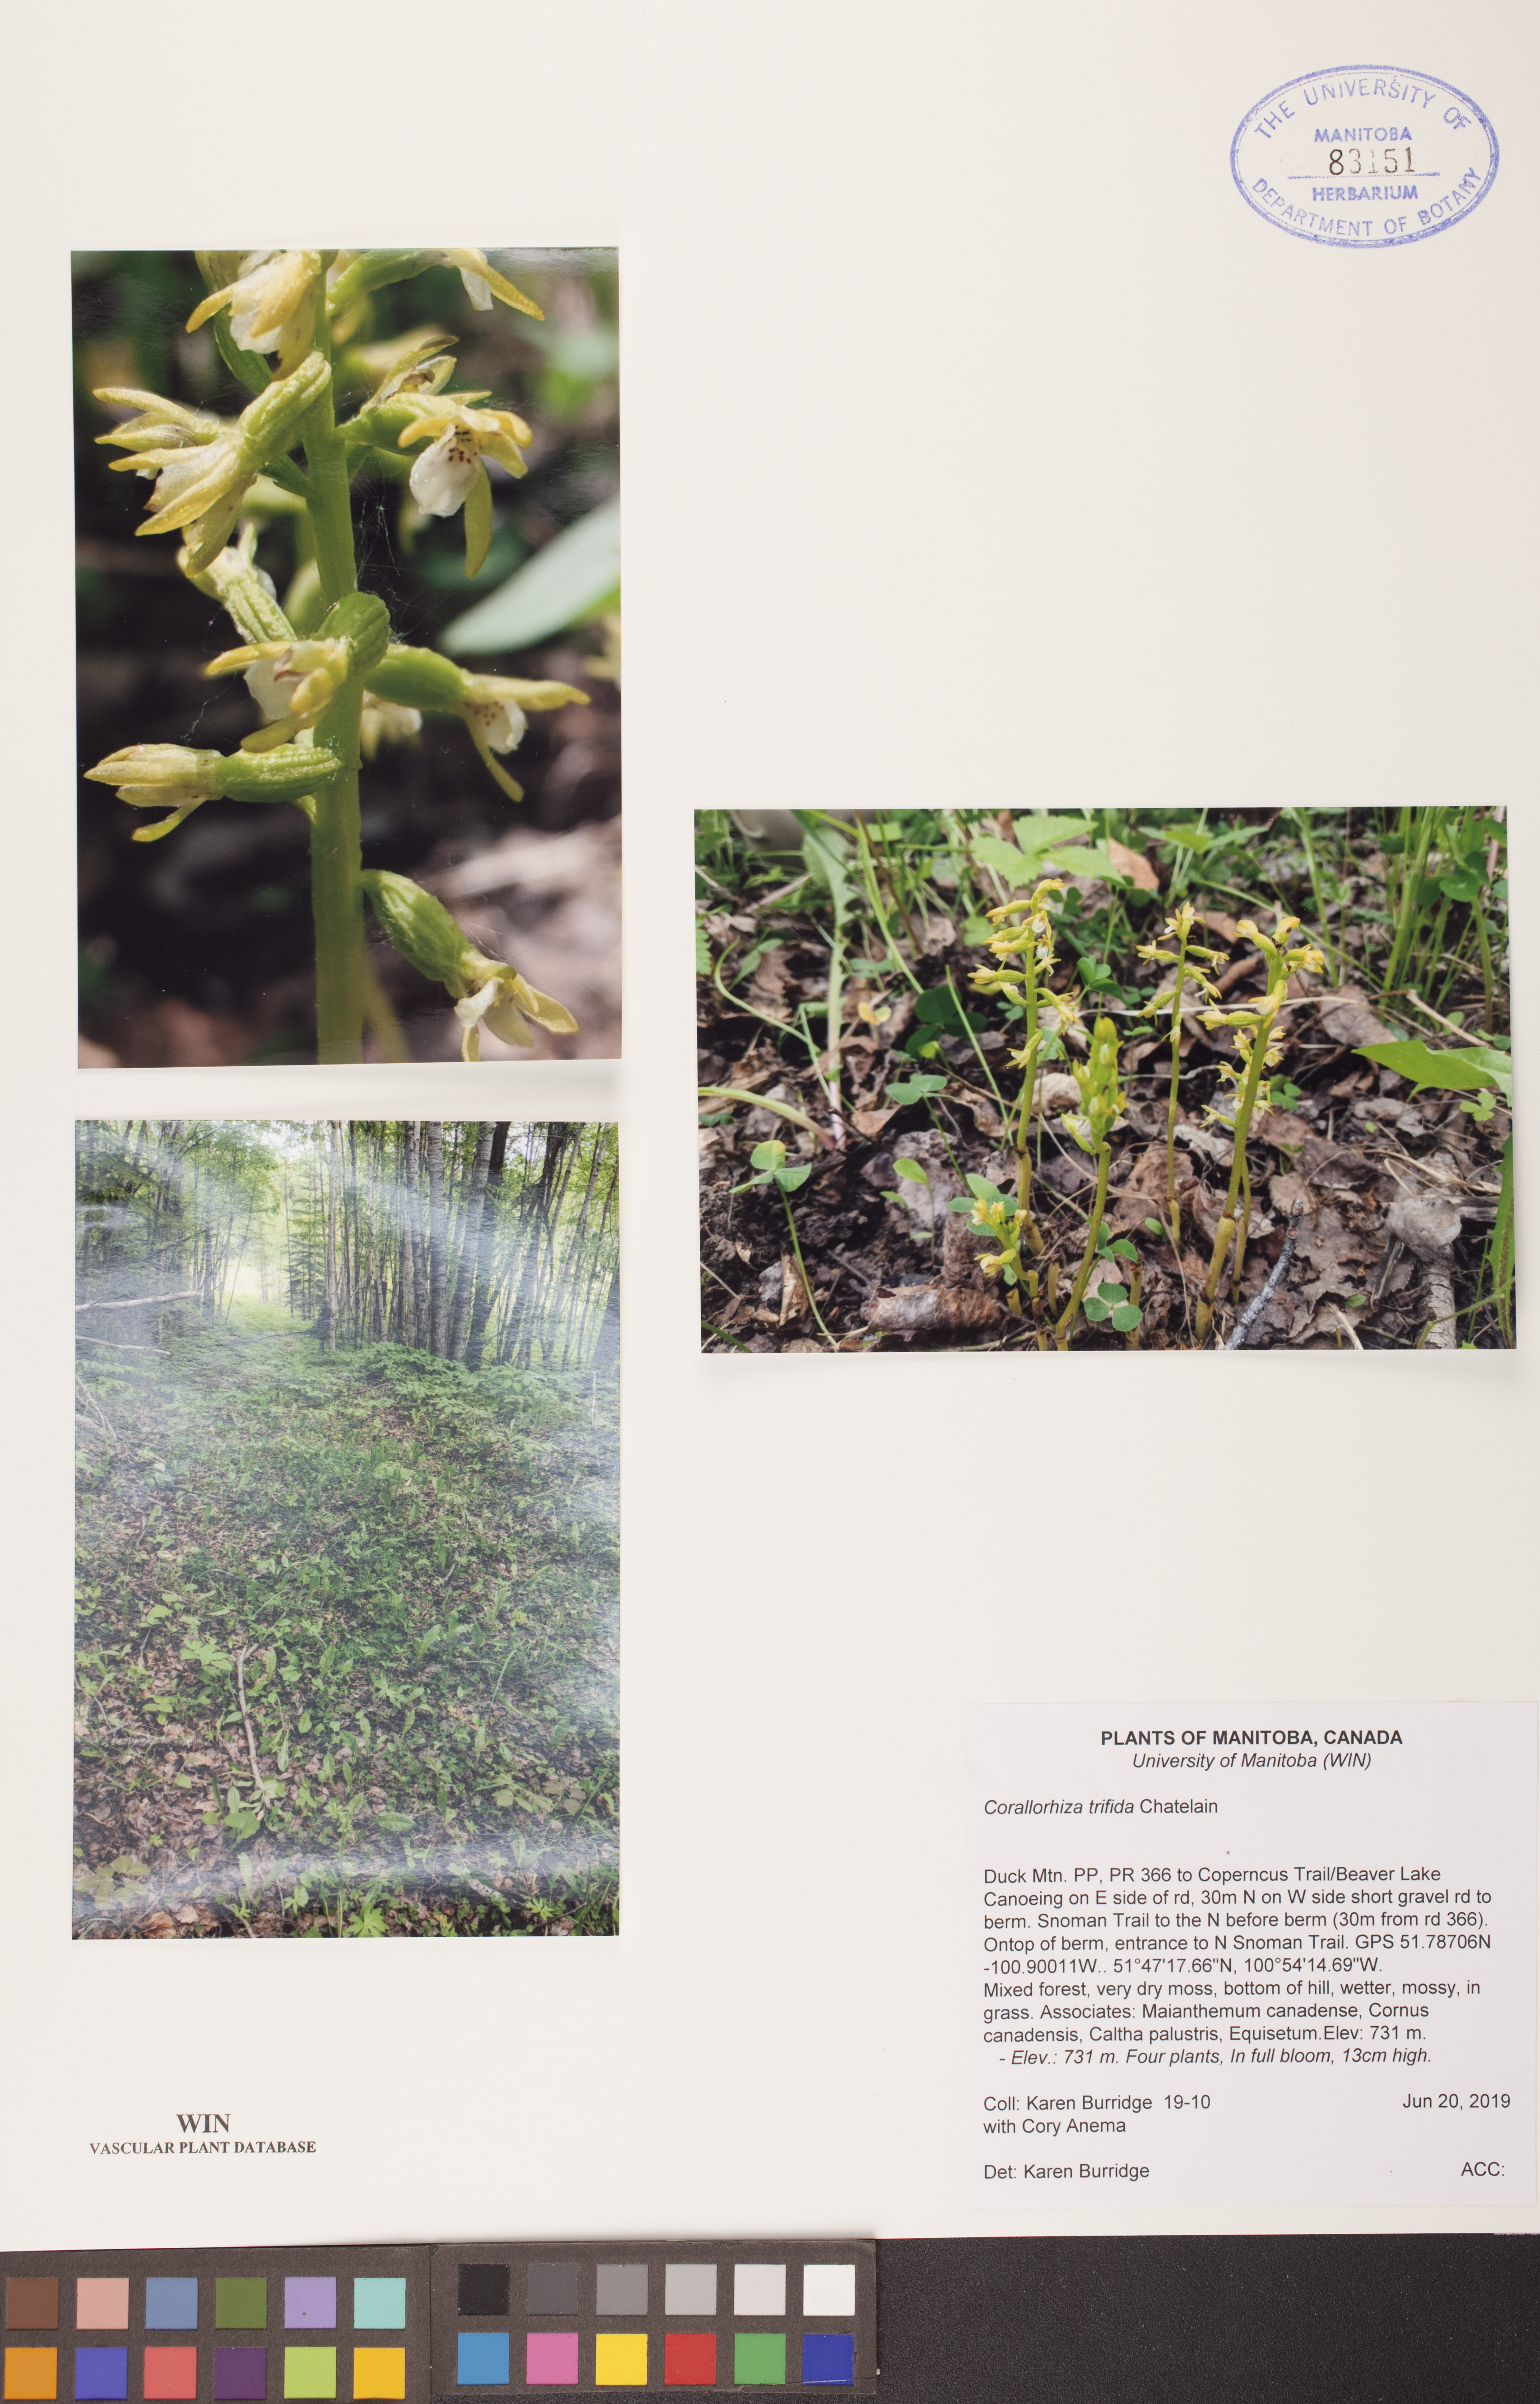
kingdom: Plantae
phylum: Tracheophyta
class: Liliopsida
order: Asparagales
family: Orchidaceae
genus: Corallorhiza
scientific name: Corallorhiza trifida
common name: Yellow coralroot
